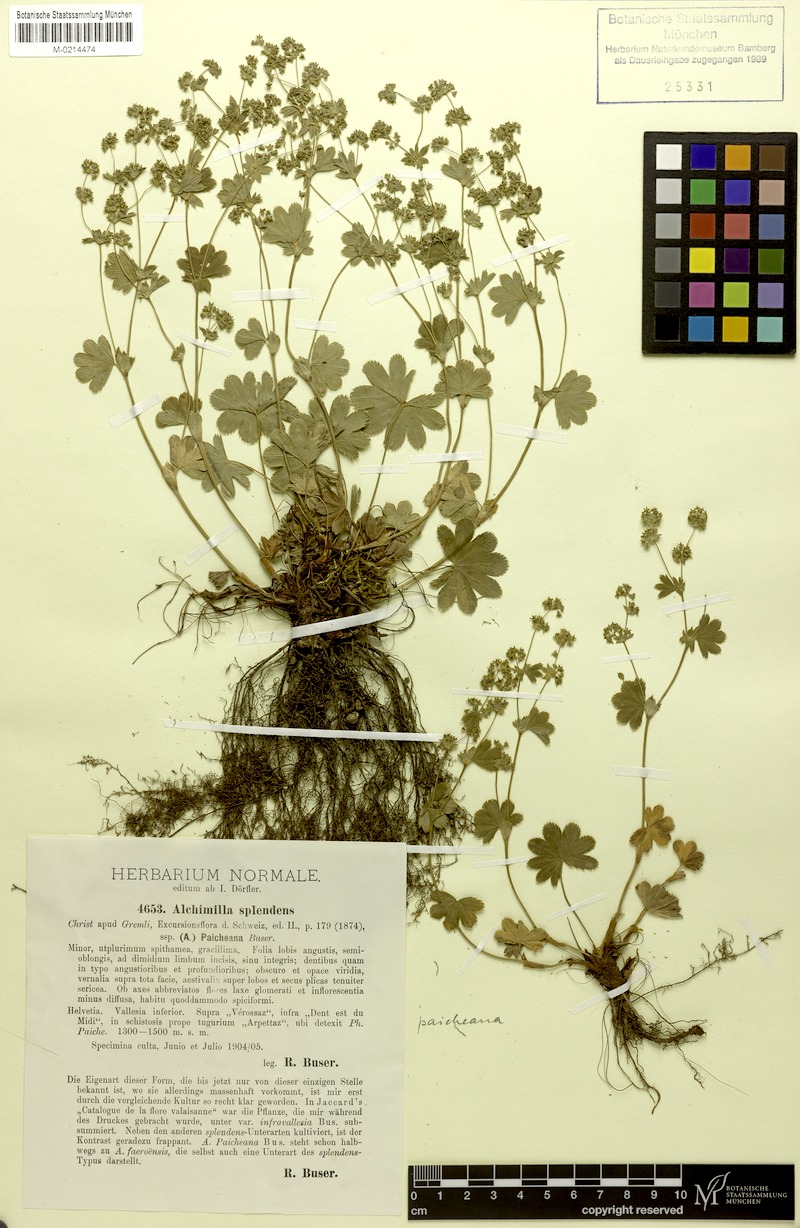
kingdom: Plantae
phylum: Tracheophyta
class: Magnoliopsida
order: Rosales
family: Rosaceae
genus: Alchemilla
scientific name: Alchemilla paicheana
